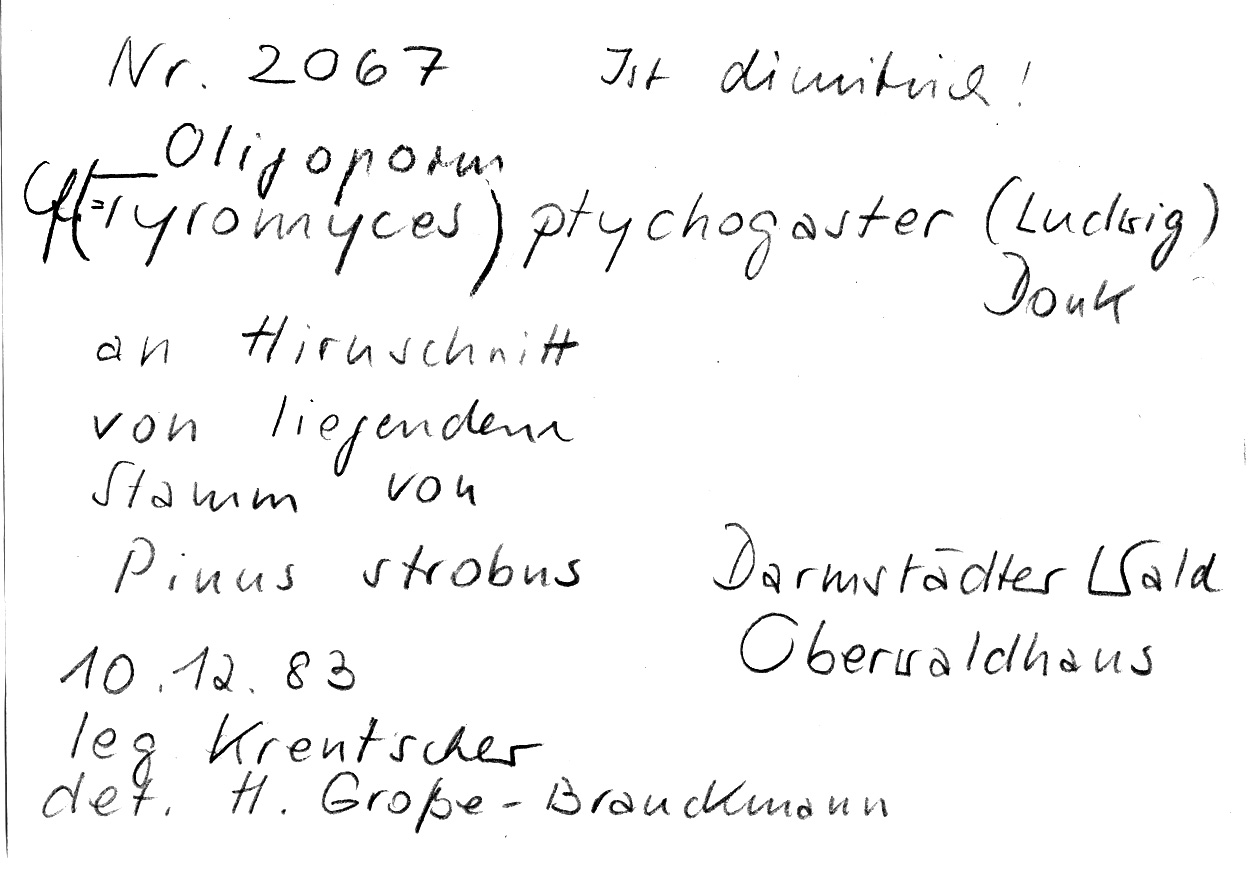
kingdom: Fungi
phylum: Basidiomycota
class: Agaricomycetes
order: Polyporales
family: Dacryobolaceae
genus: Postia
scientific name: Postia ptychogaster
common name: Powderpuff bracket
